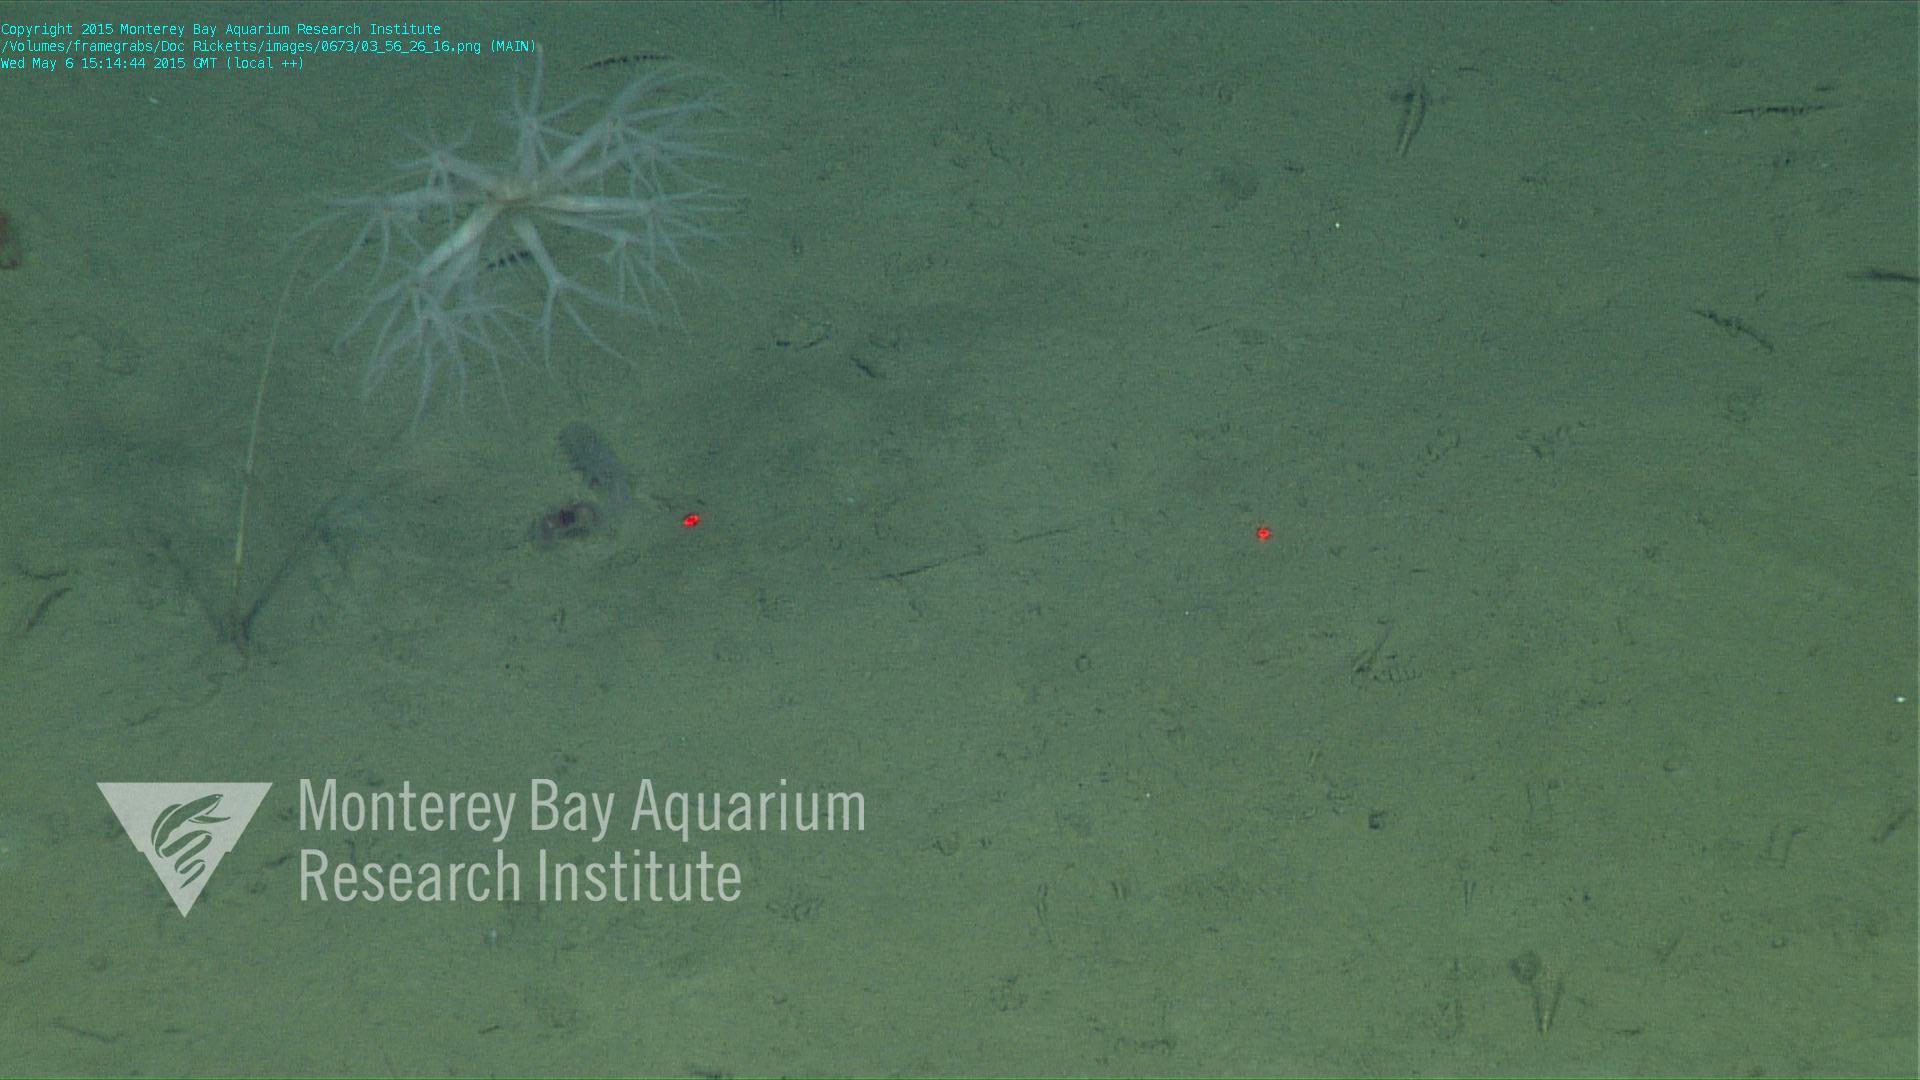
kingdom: Animalia
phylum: Cnidaria
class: Anthozoa
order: Scleralcyonacea
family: Umbellulidae
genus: Umbellula
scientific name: Umbellula
